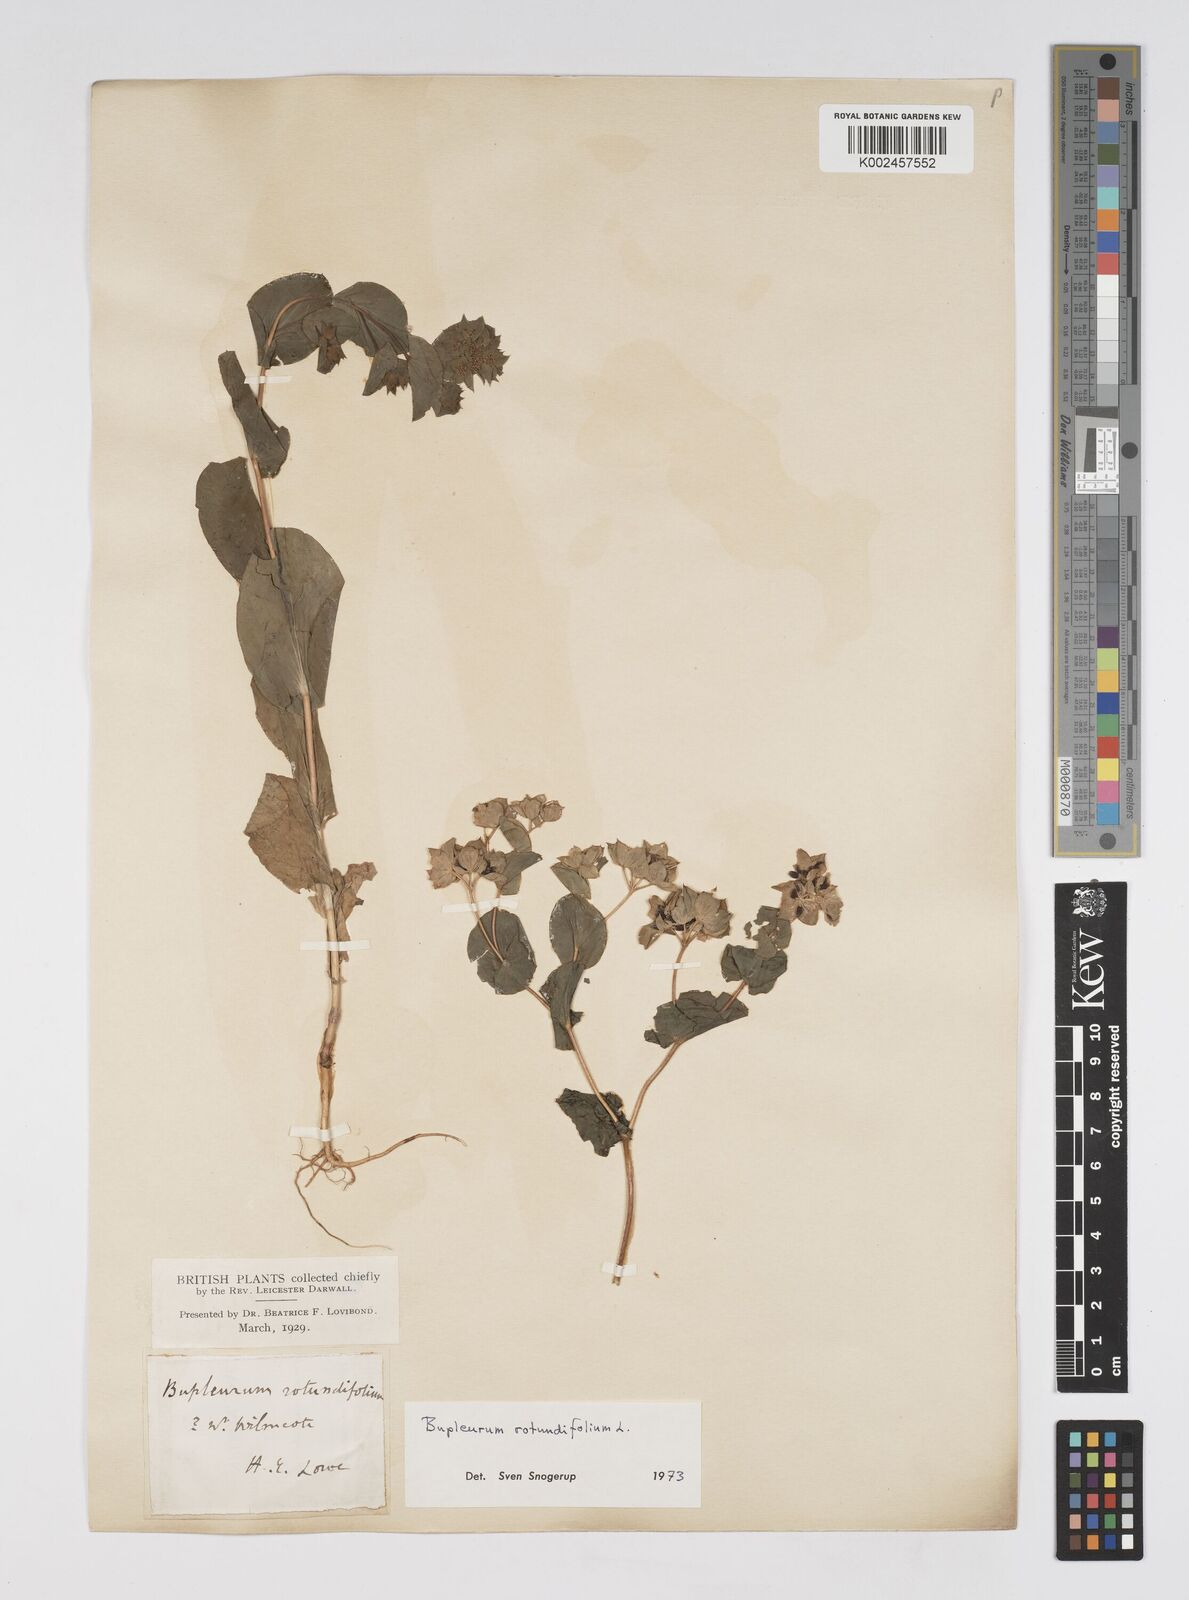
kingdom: Plantae
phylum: Tracheophyta
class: Magnoliopsida
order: Apiales
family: Apiaceae
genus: Bupleurum
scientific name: Bupleurum rotundifolium
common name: Thorow-wax
